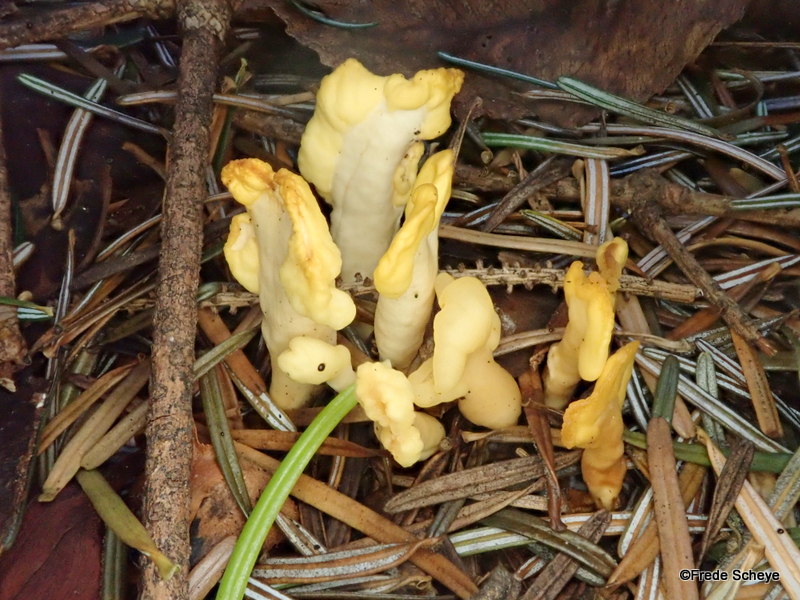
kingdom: Fungi
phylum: Ascomycota
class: Leotiomycetes
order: Rhytismatales
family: Cudoniaceae
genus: Spathularia
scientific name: Spathularia flavida
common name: gul spatelsvamp
